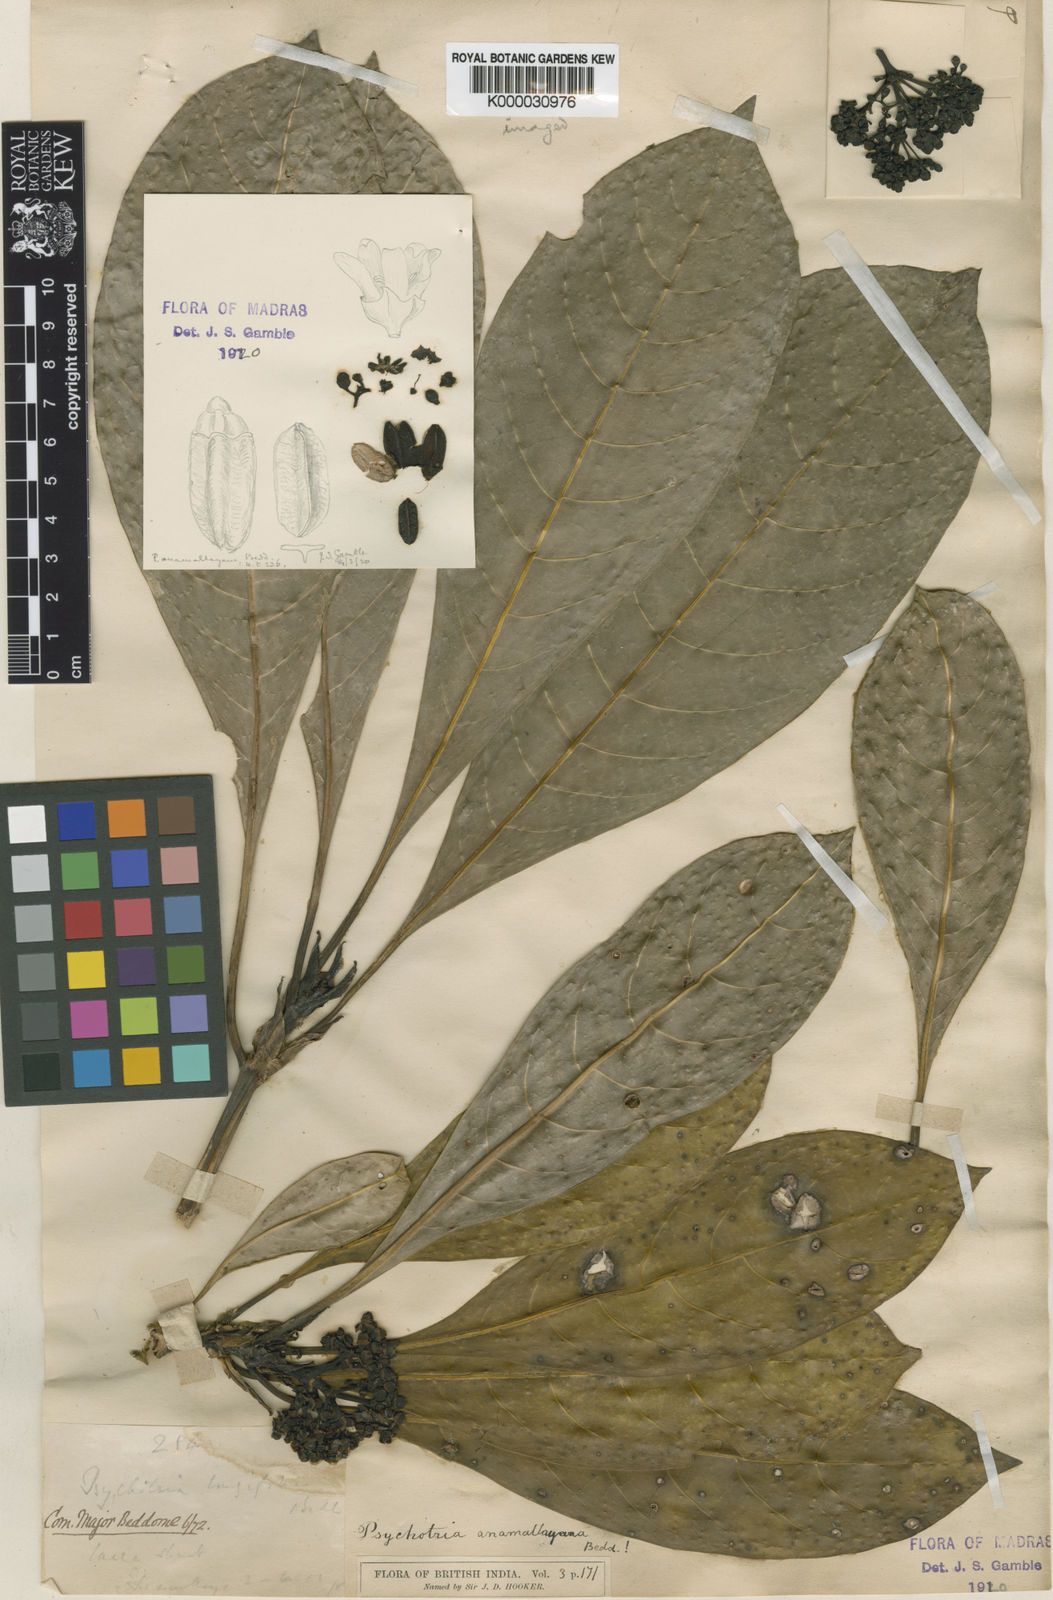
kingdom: Plantae
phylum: Tracheophyta
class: Magnoliopsida
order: Gentianales
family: Rubiaceae
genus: Psychotria
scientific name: Psychotria anamallayana
